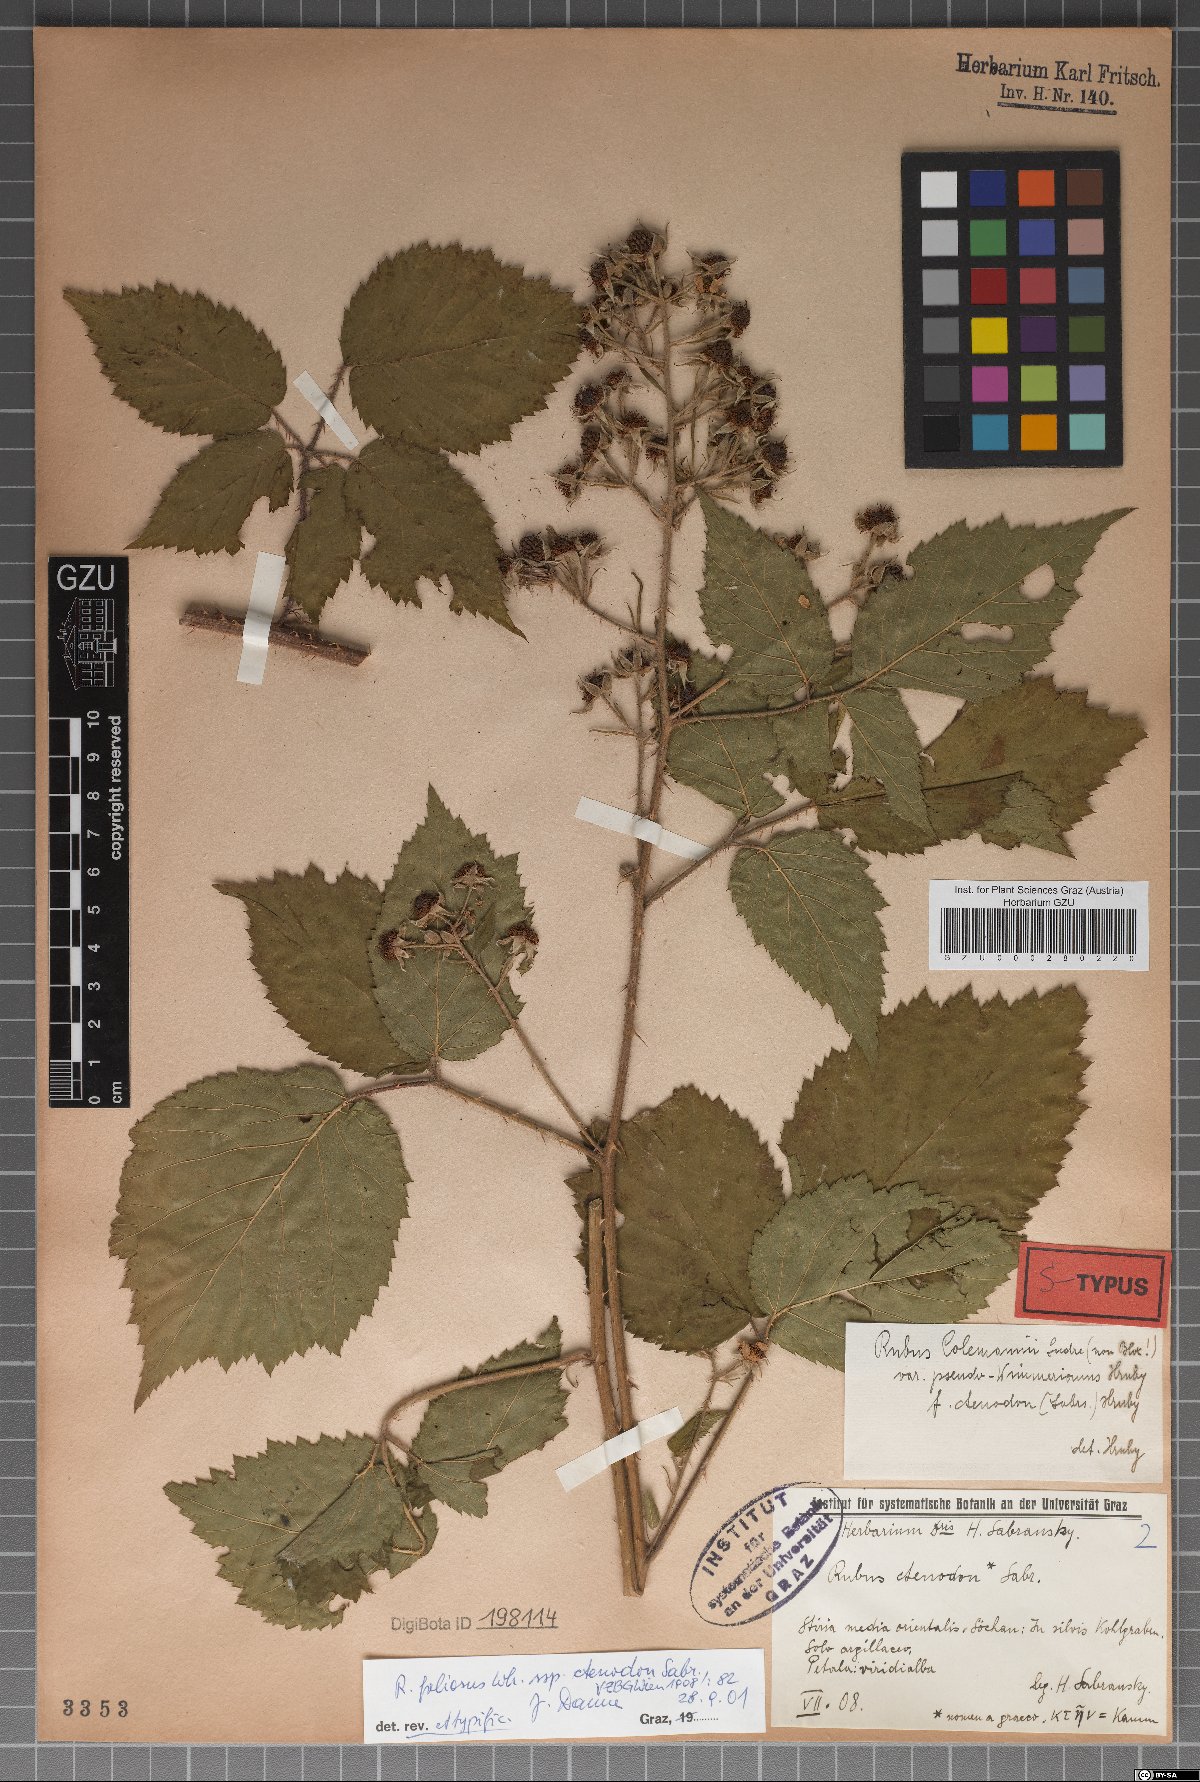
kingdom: Plantae
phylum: Tracheophyta
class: Magnoliopsida
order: Rosales
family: Rosaceae
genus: Rubus
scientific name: Rubus foliosus
